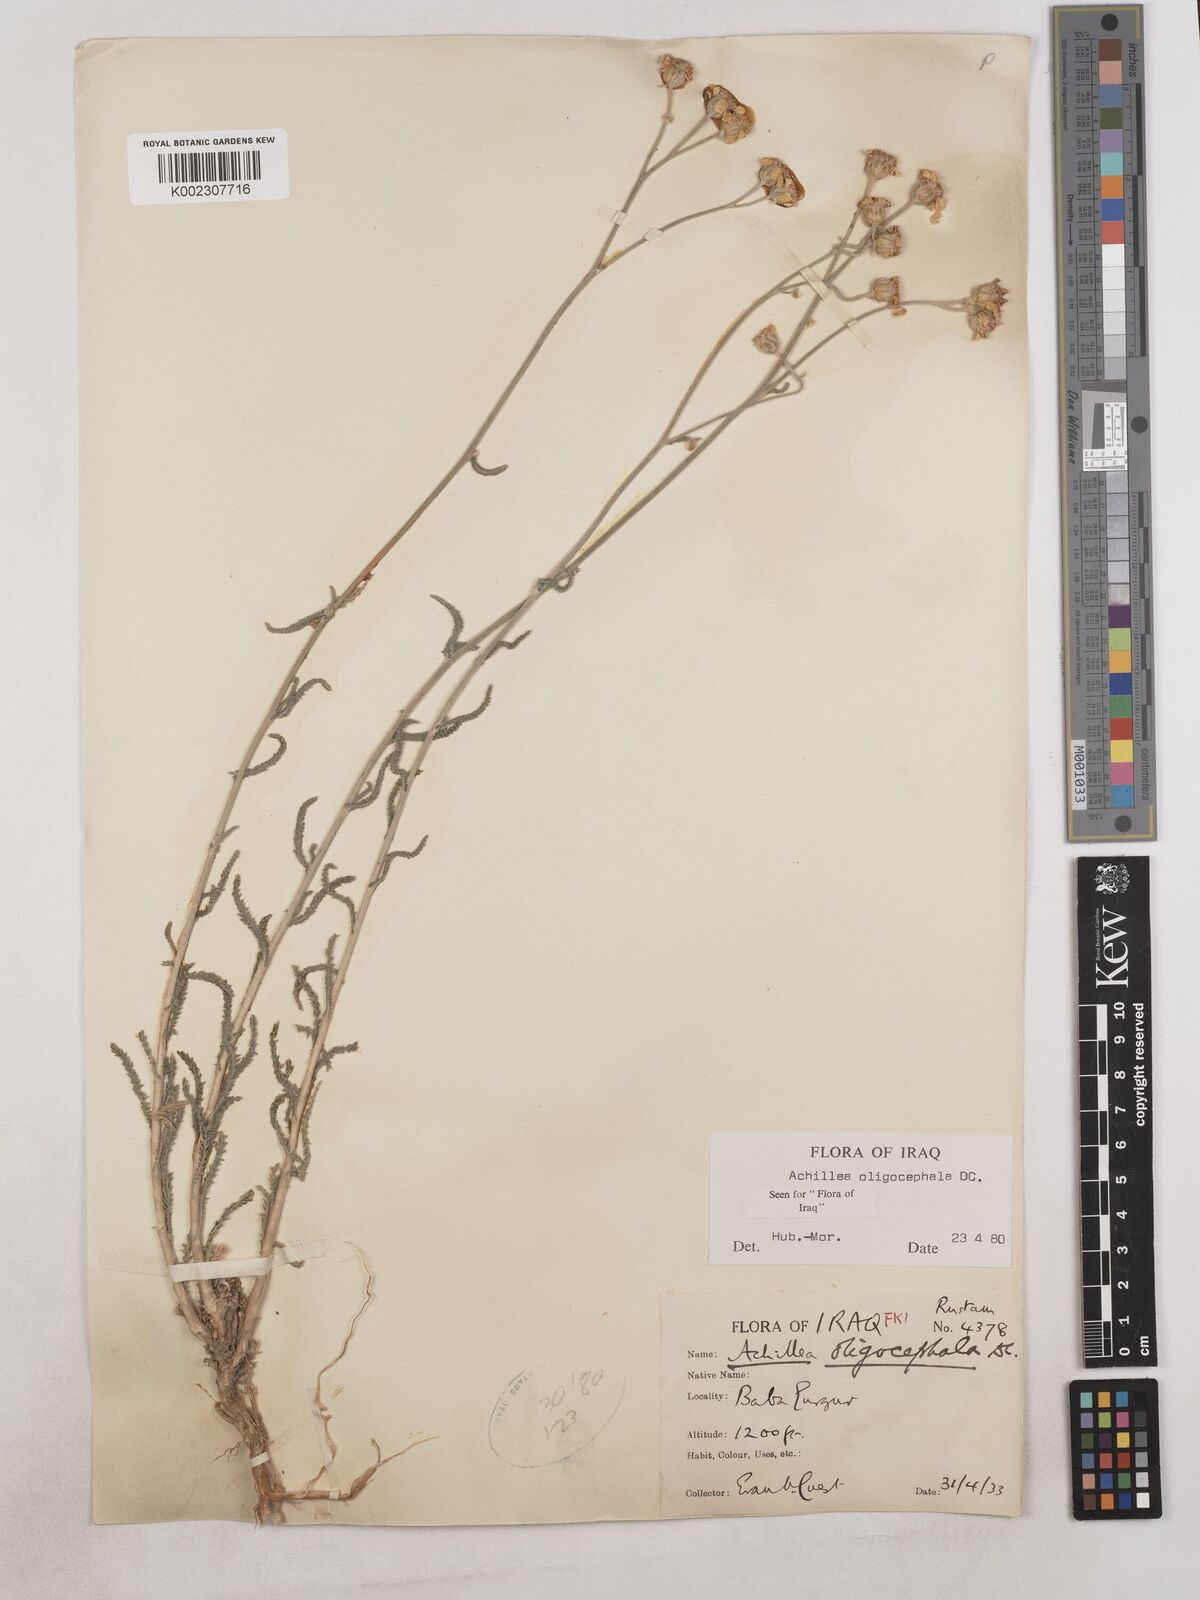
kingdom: Plantae
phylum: Tracheophyta
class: Magnoliopsida
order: Asterales
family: Asteraceae
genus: Achillea
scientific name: Achillea oligocephala
